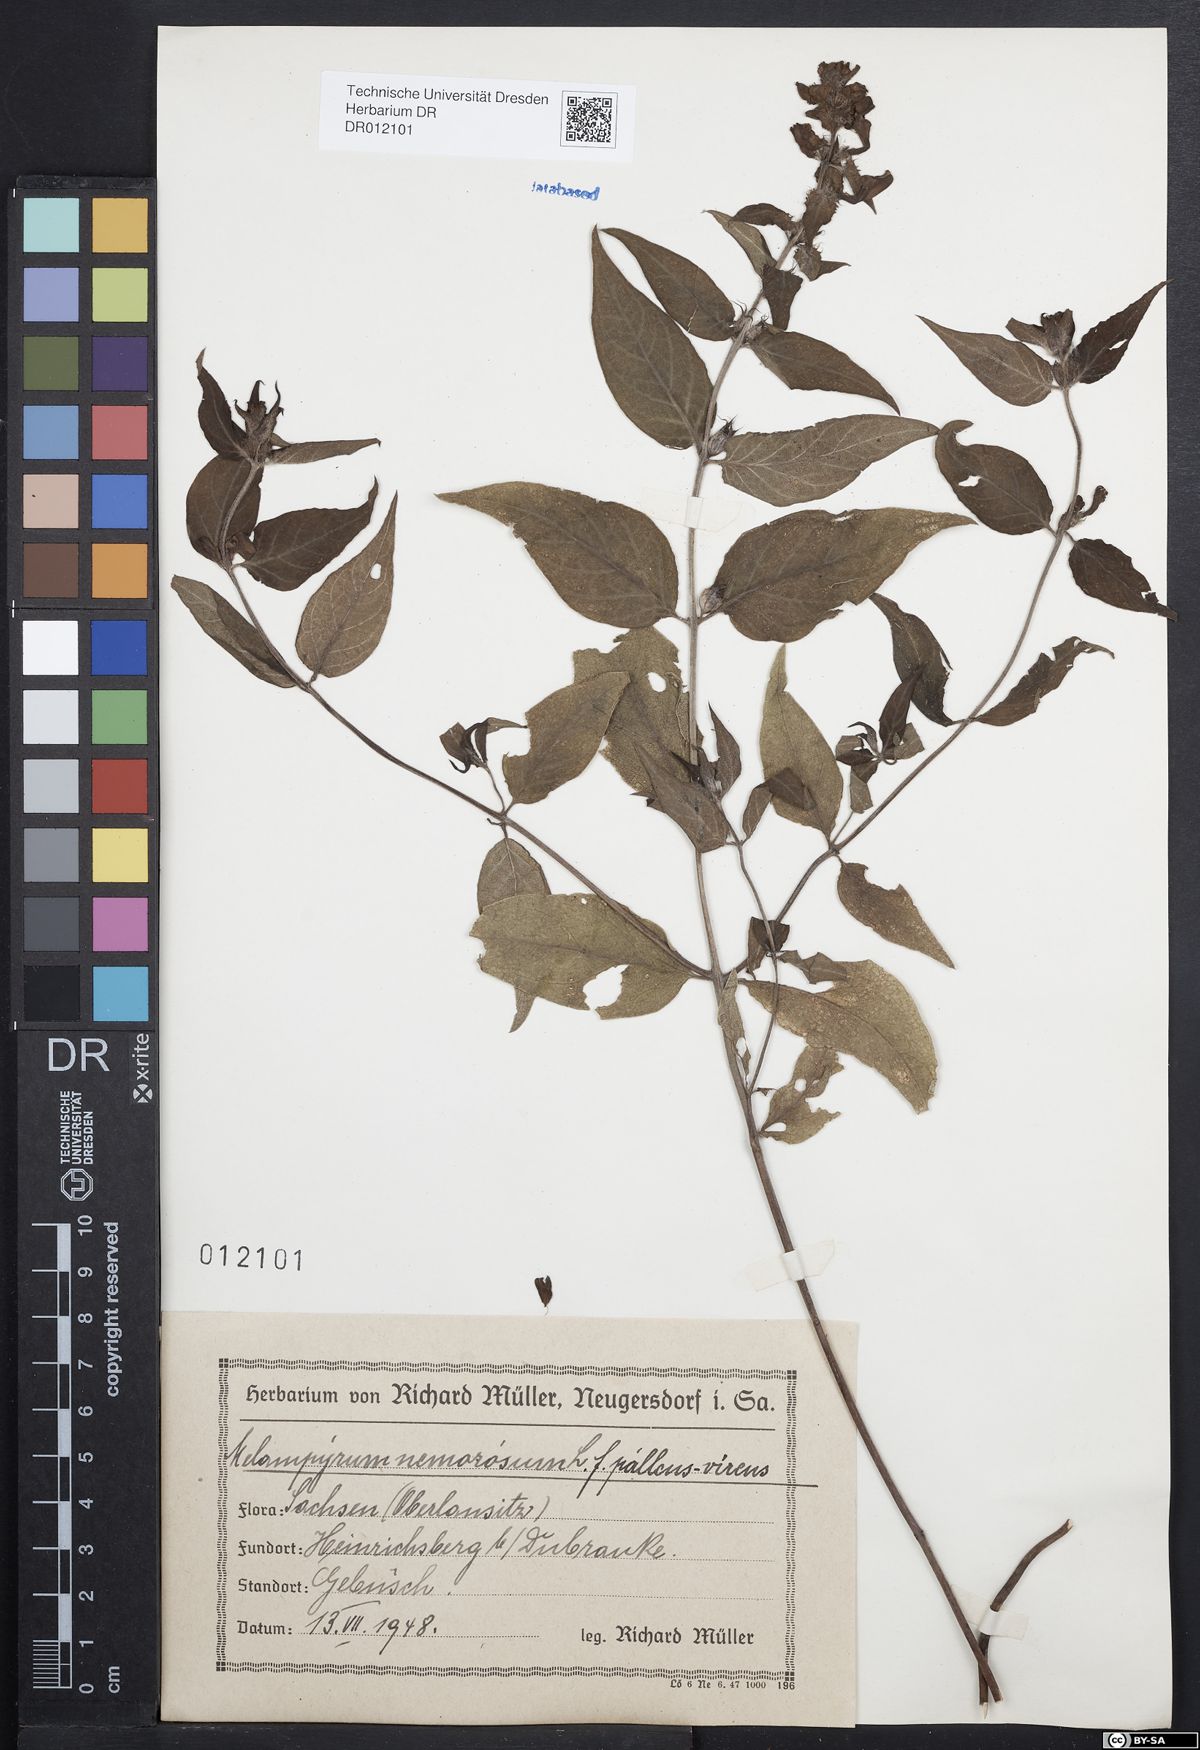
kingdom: Plantae
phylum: Tracheophyta
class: Magnoliopsida
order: Lamiales
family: Orobanchaceae
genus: Melampyrum
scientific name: Melampyrum nemorosum
